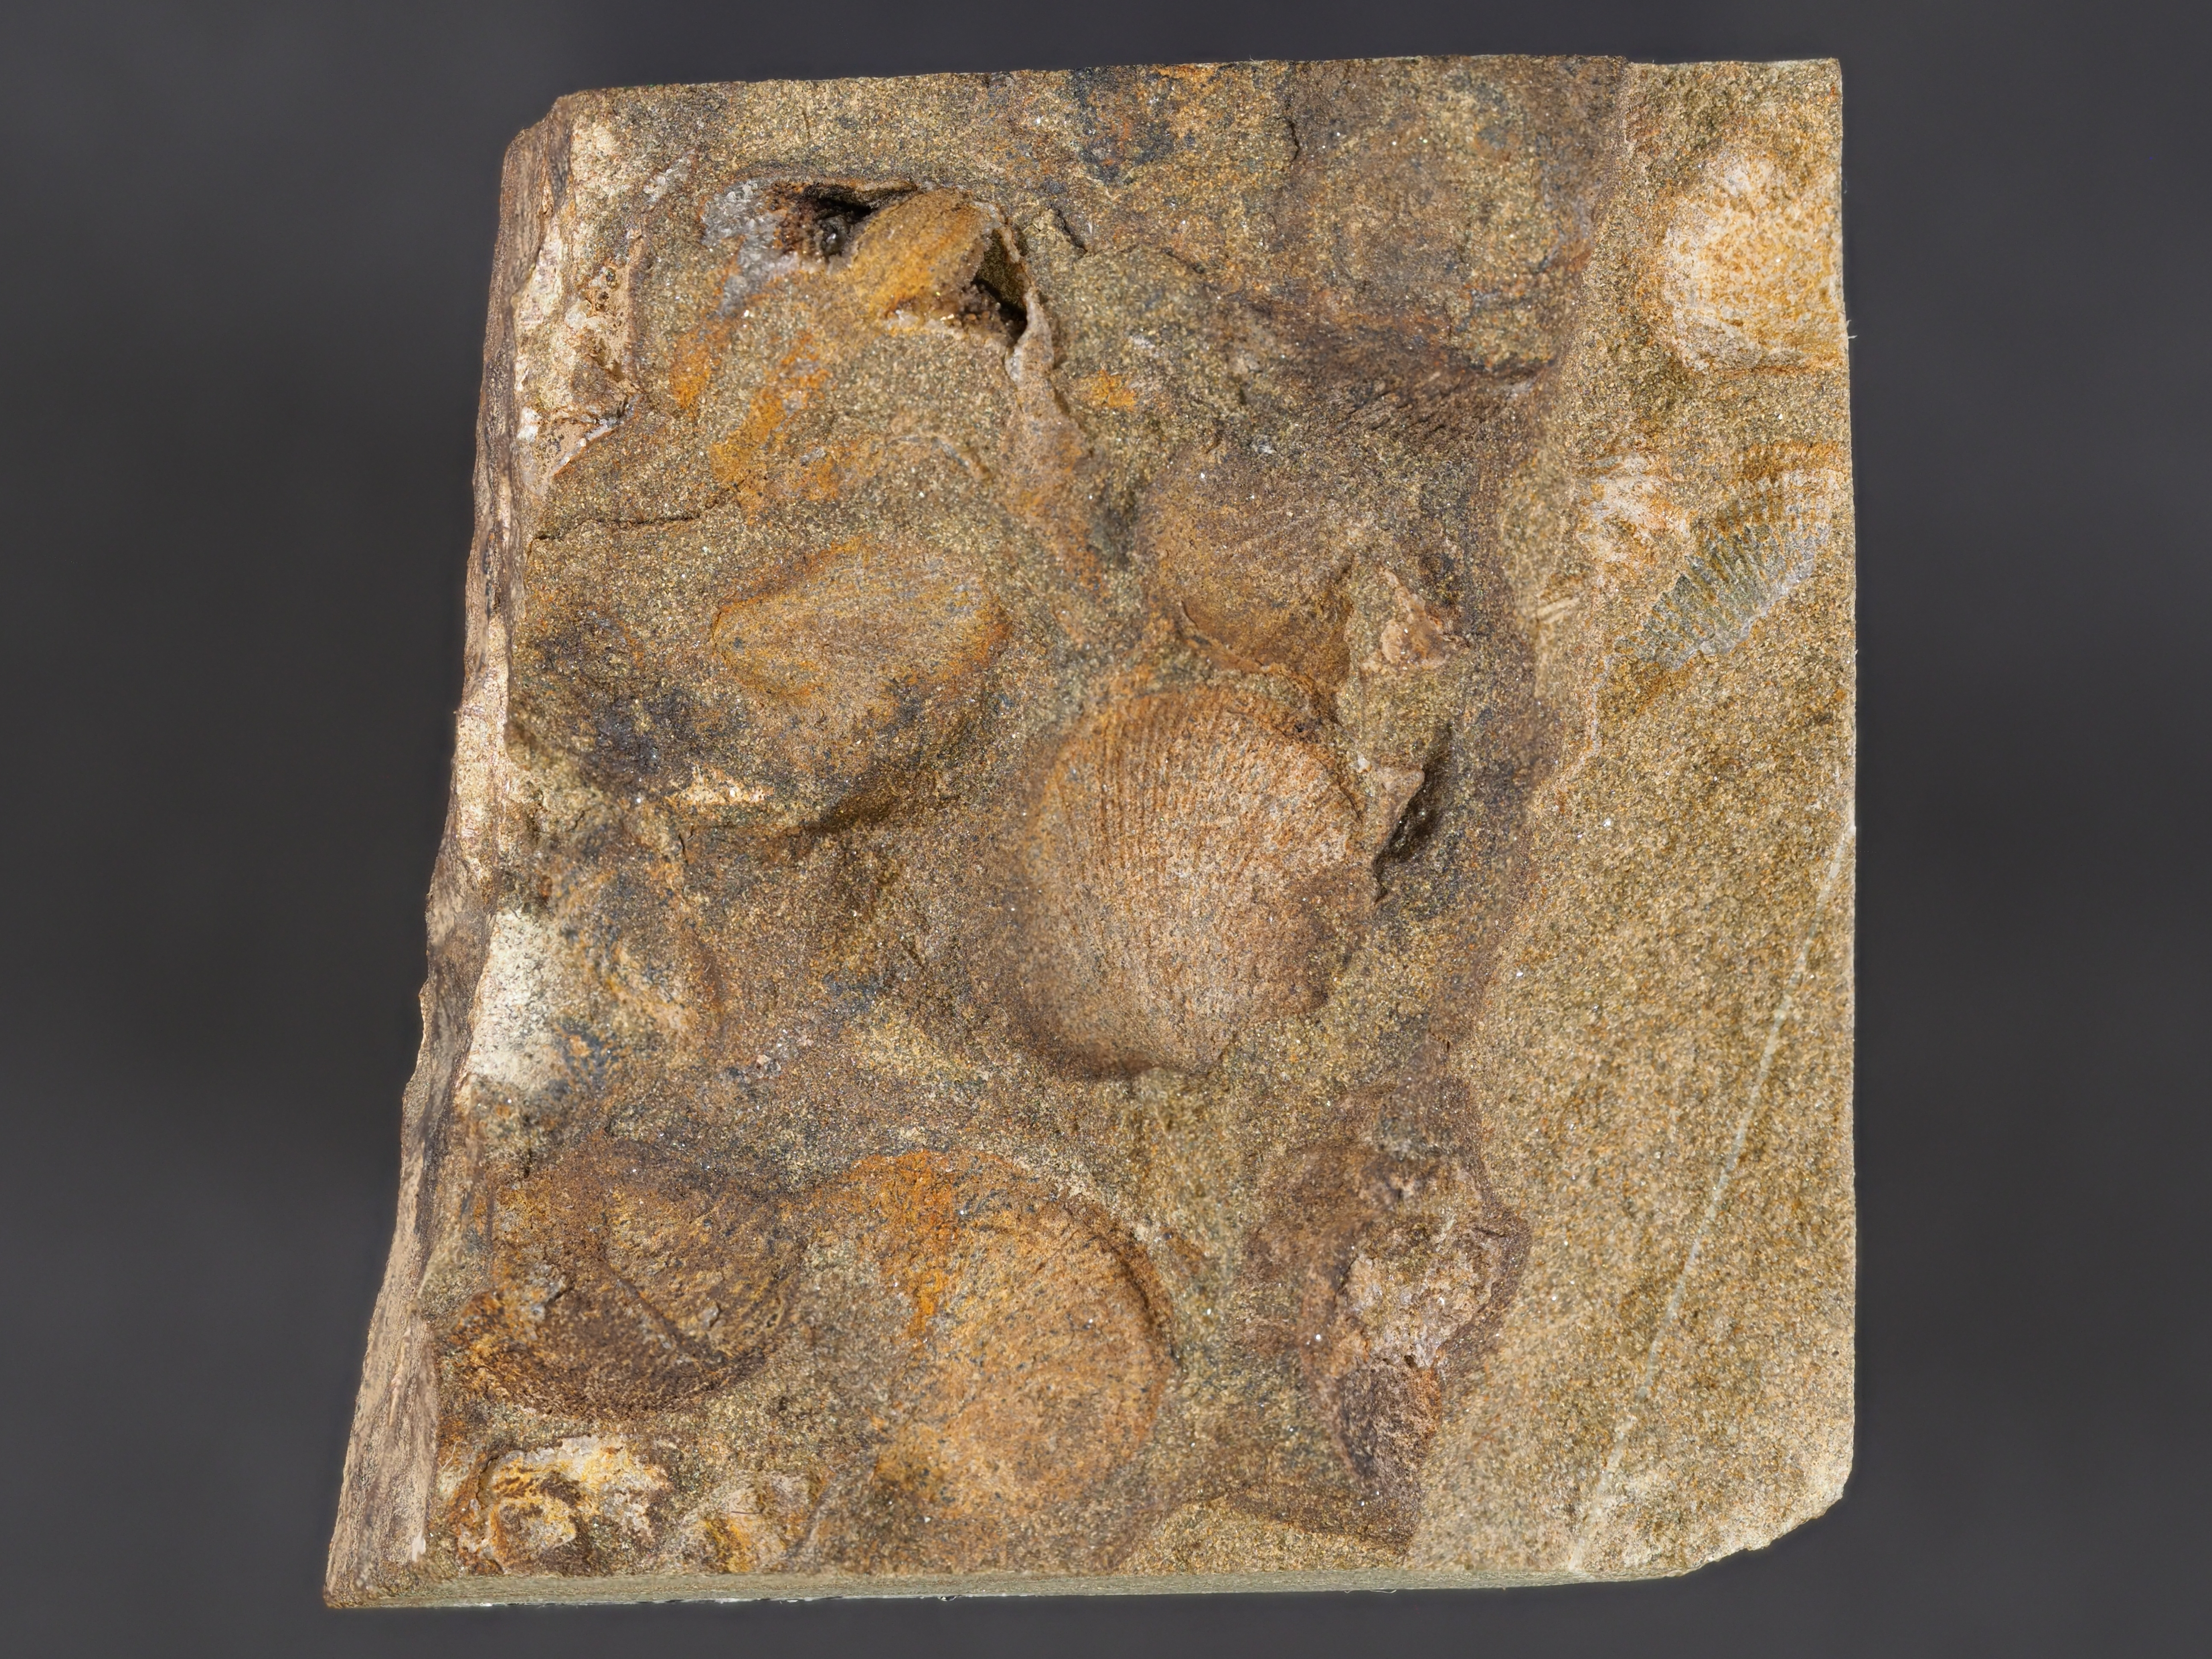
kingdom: Animalia
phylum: Brachiopoda
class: Rhynchonellata
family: Rhipidomellidae
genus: Platyorthis
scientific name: Platyorthis
